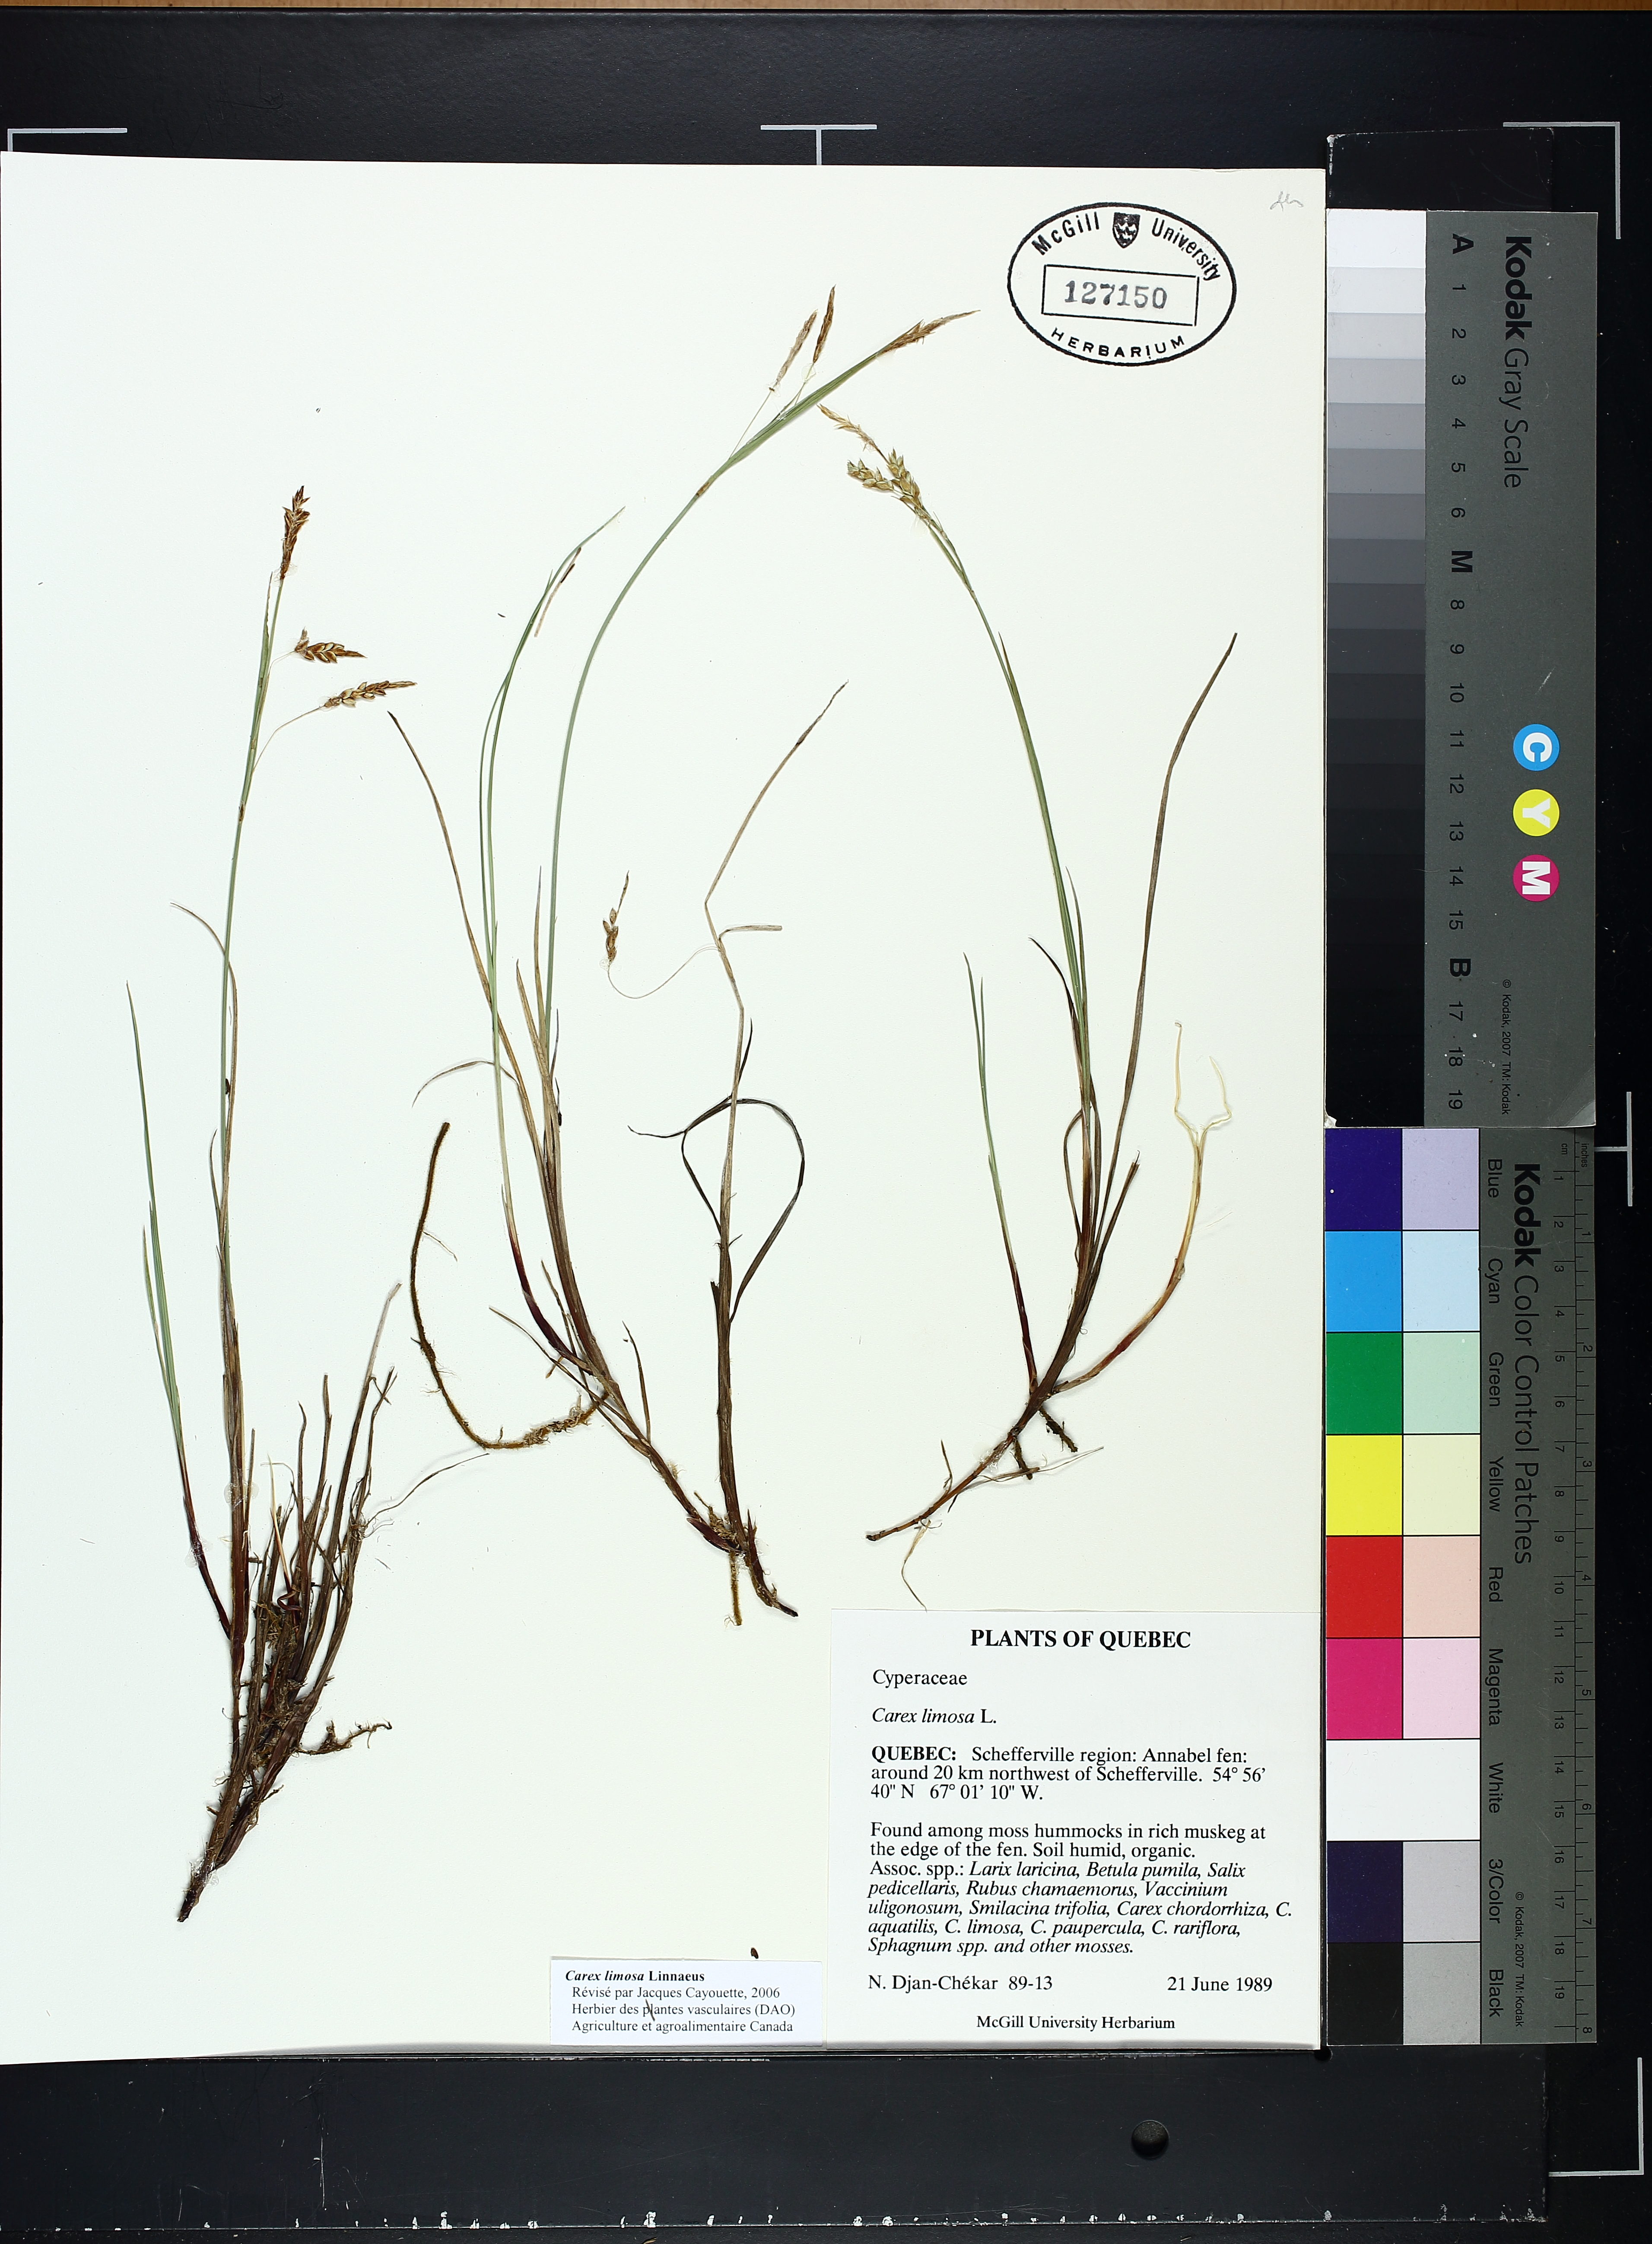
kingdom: Plantae
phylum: Tracheophyta
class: Liliopsida
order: Poales
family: Cyperaceae
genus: Carex
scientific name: Carex limosa
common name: Bog sedge
